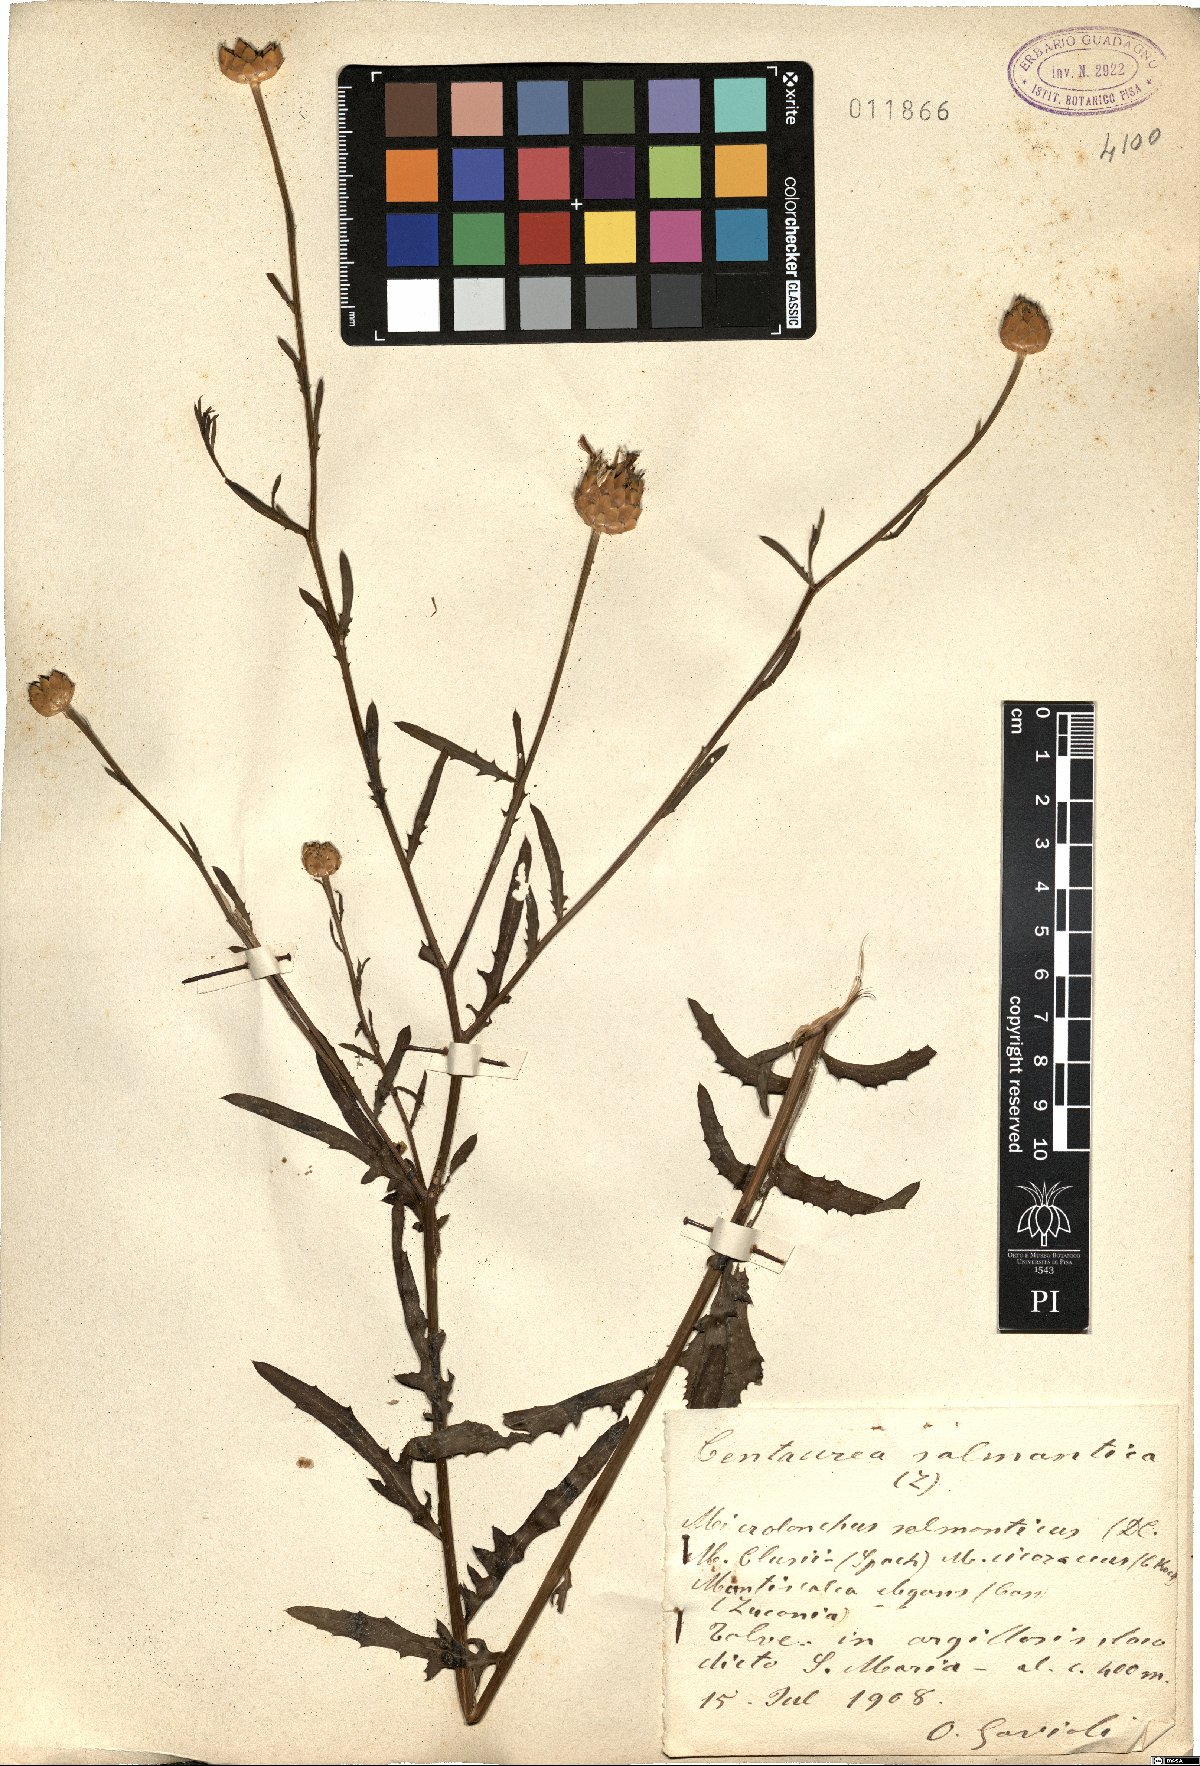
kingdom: Plantae
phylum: Tracheophyta
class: Magnoliopsida
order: Asterales
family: Asteraceae
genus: Mantisalca
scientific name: Mantisalca salmantica
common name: Dagger flower
